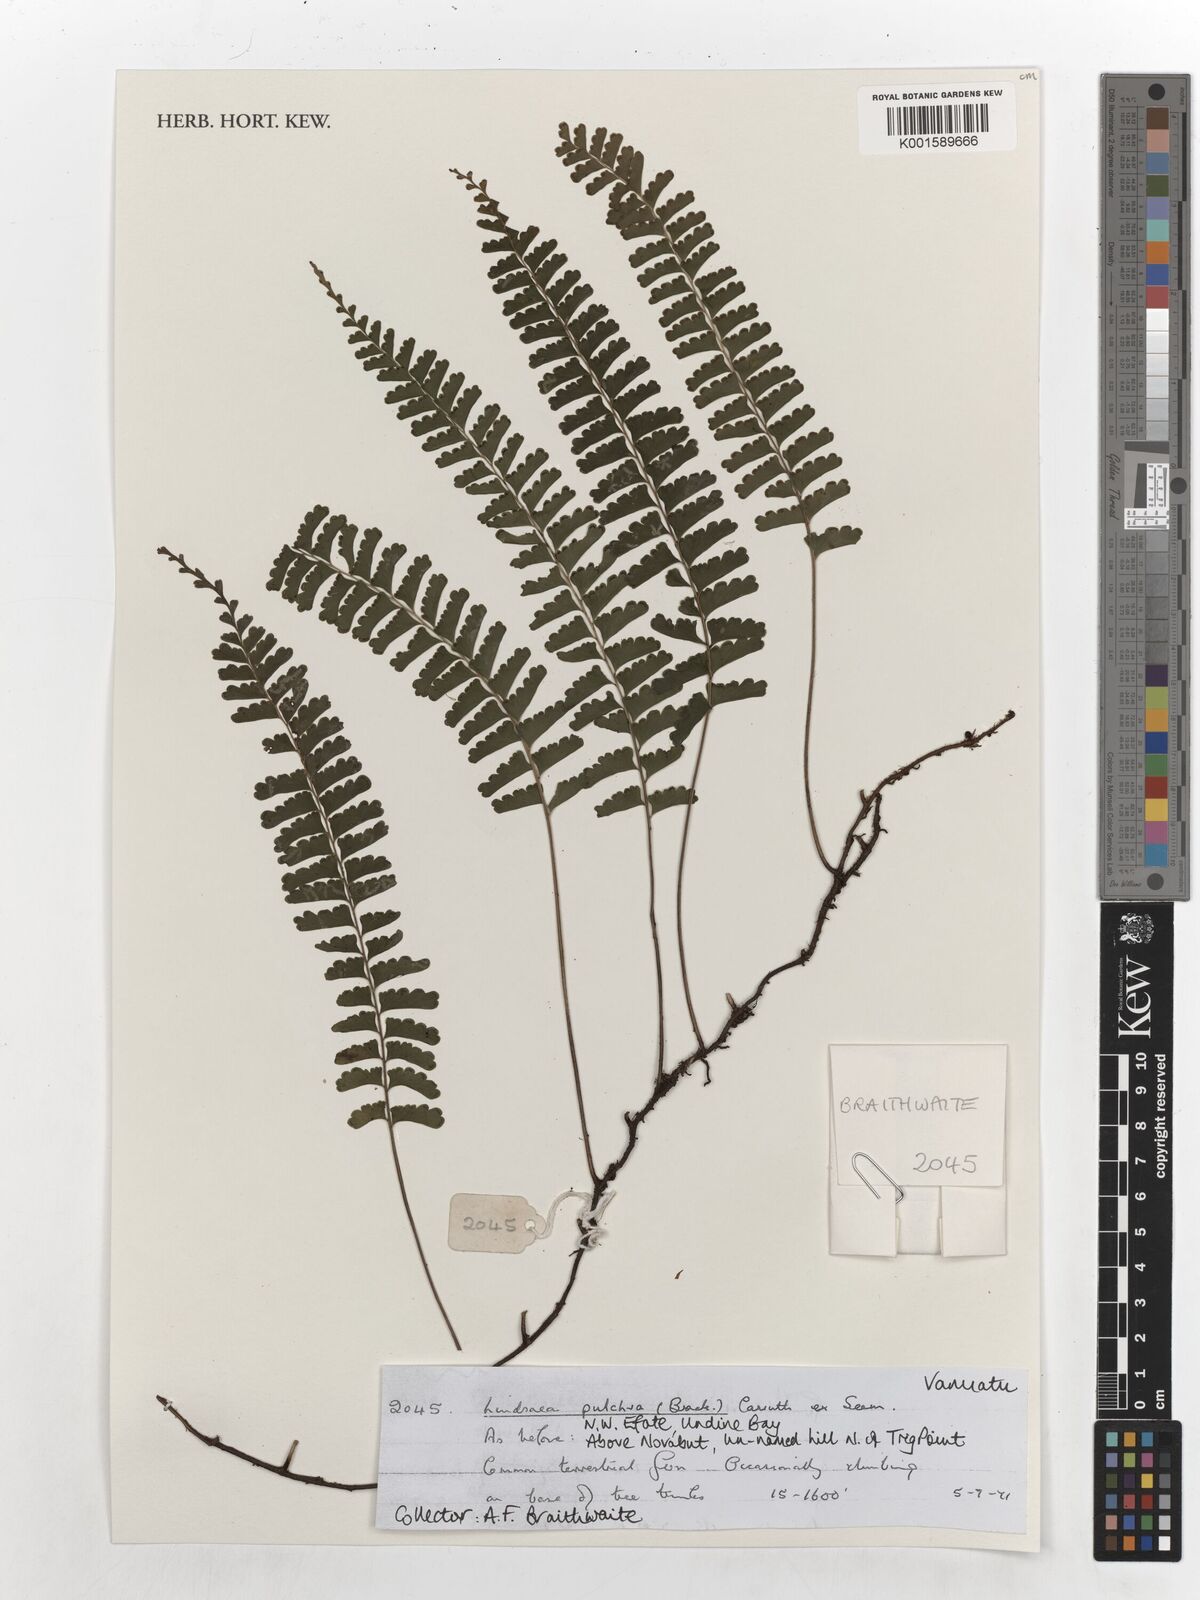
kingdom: Plantae
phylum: Tracheophyta
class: Polypodiopsida
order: Polypodiales
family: Lindsaeaceae
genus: Lindsaea
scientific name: Lindsaea pulchra
